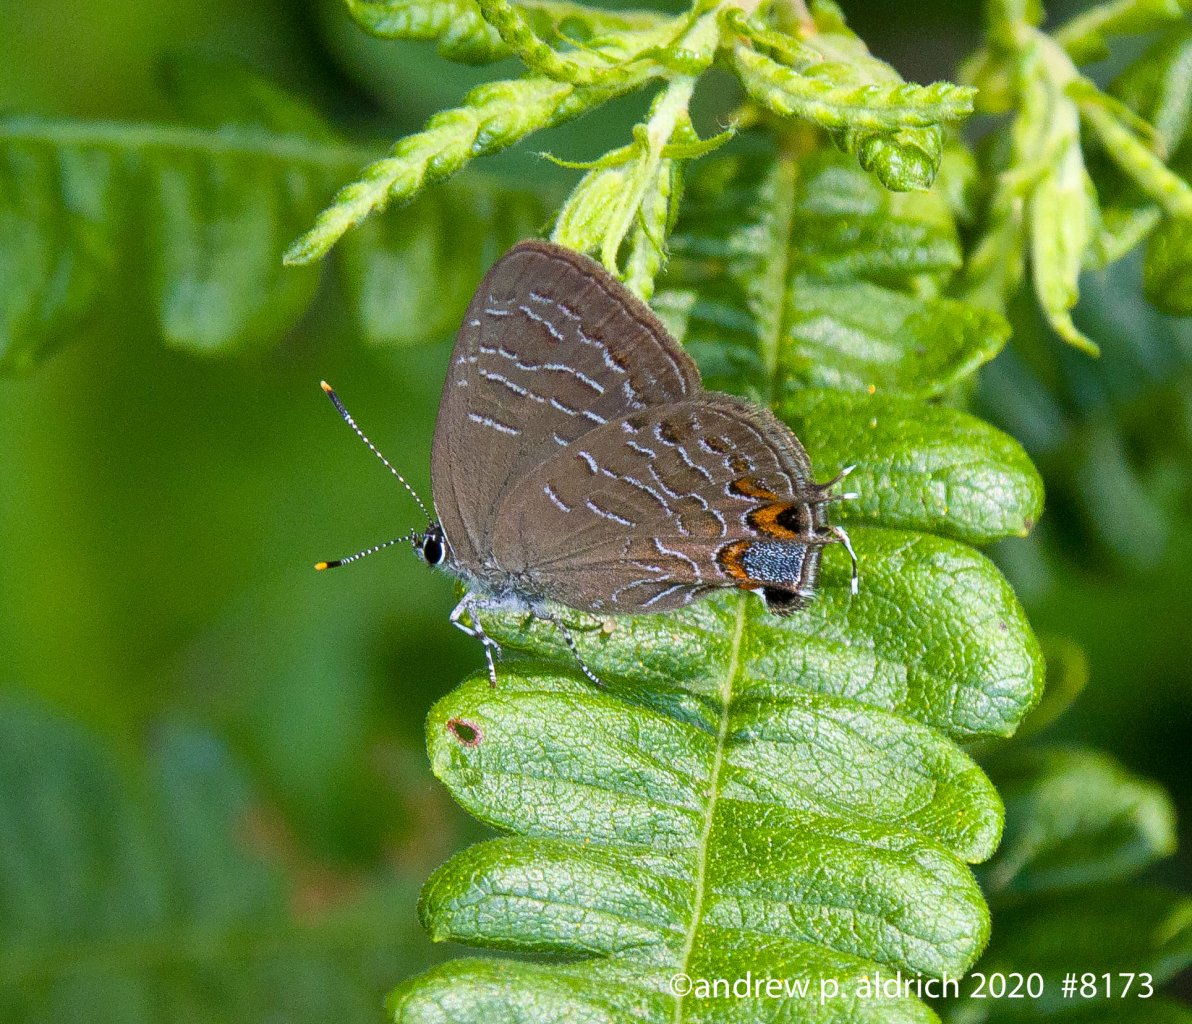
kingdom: Animalia
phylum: Arthropoda
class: Insecta
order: Lepidoptera
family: Lycaenidae
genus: Satyrium
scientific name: Satyrium liparops
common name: Striped Hairstreak
